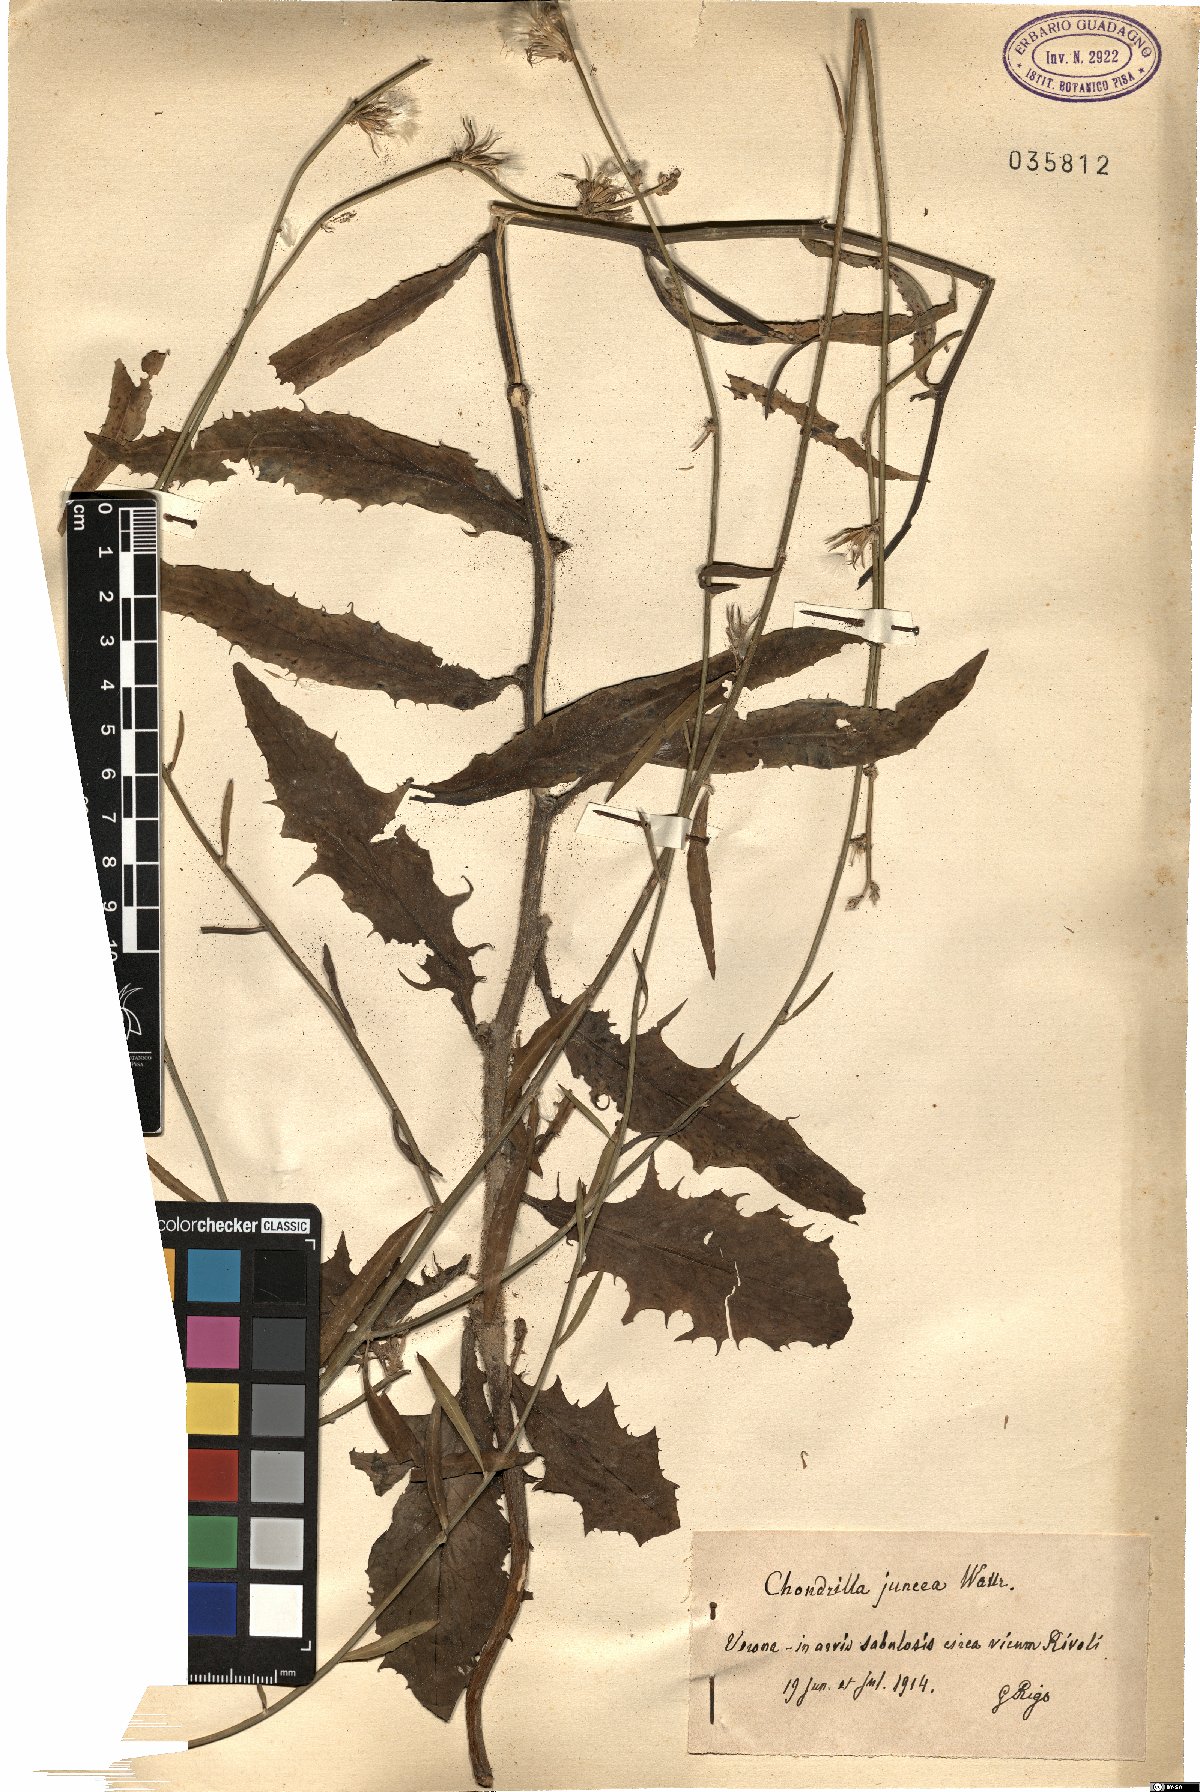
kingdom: Plantae
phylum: Tracheophyta
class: Magnoliopsida
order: Asterales
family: Asteraceae
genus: Chondrilla
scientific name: Chondrilla juncea
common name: Skeleton weed
